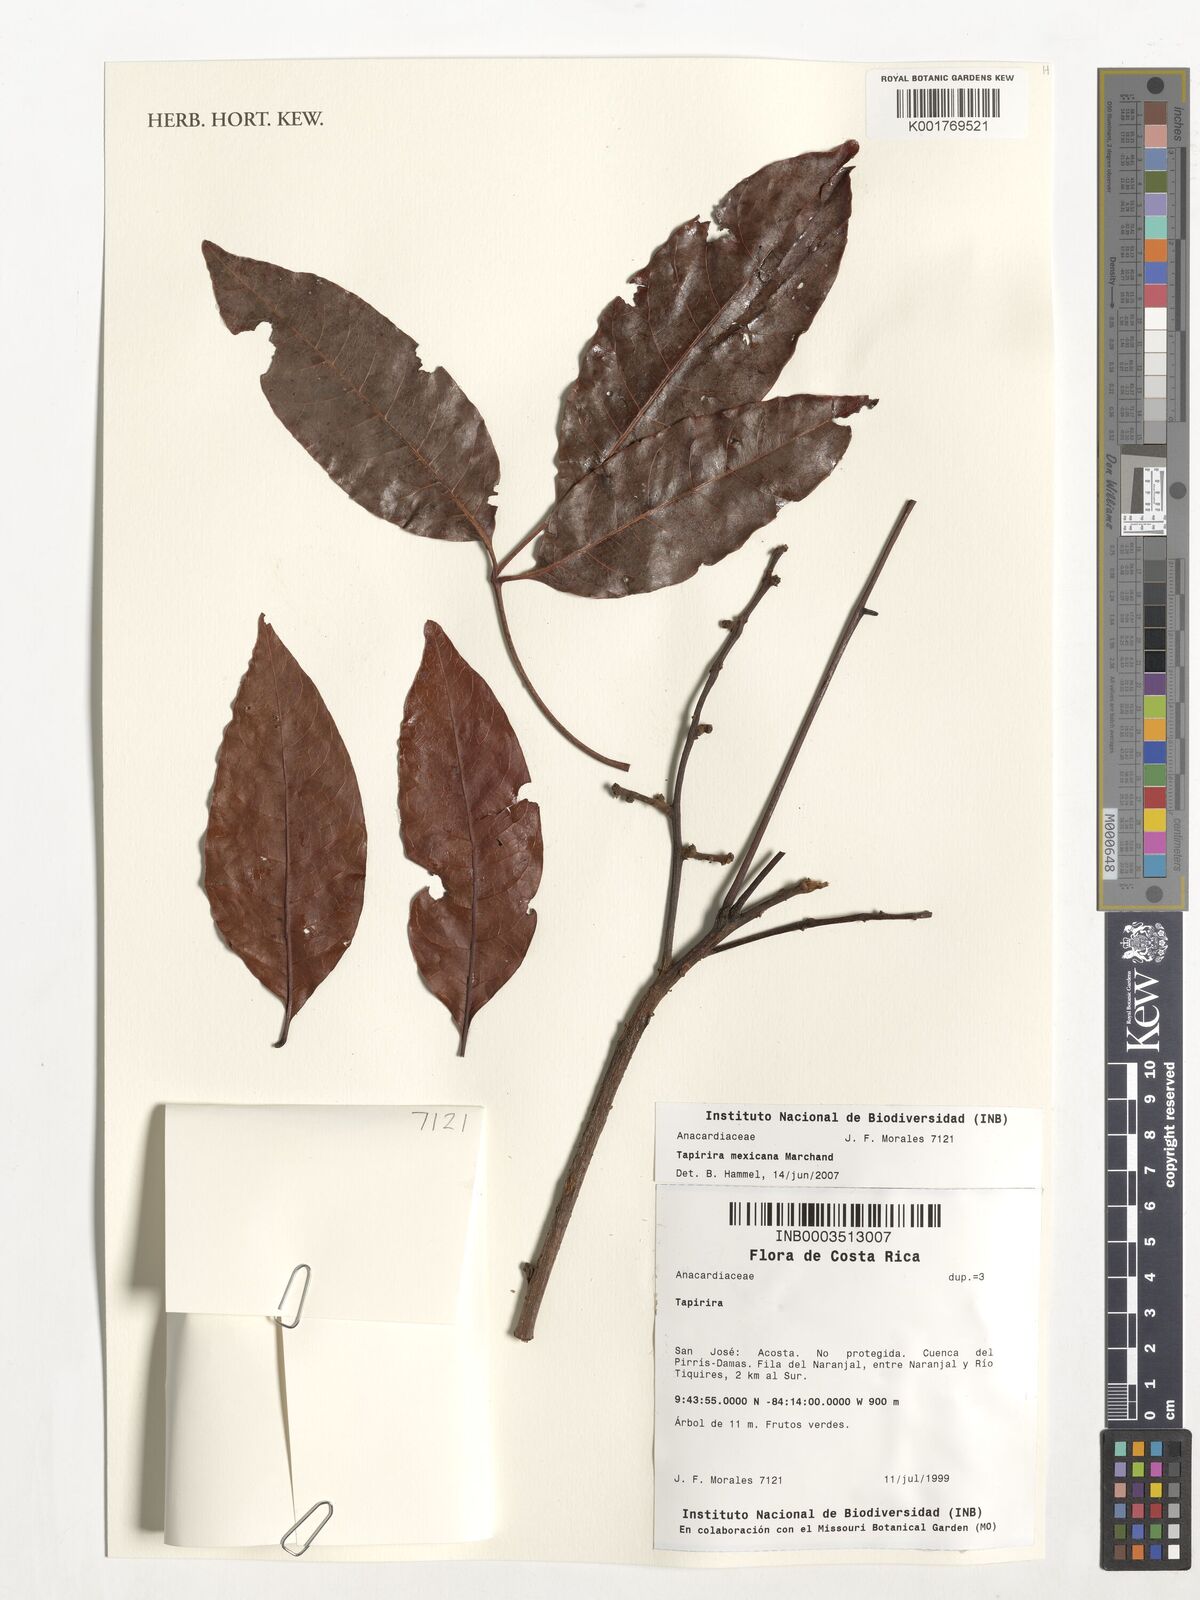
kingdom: Plantae
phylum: Tracheophyta
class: Magnoliopsida
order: Sapindales
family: Anacardiaceae
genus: Tapirira
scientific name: Tapirira mexicana
